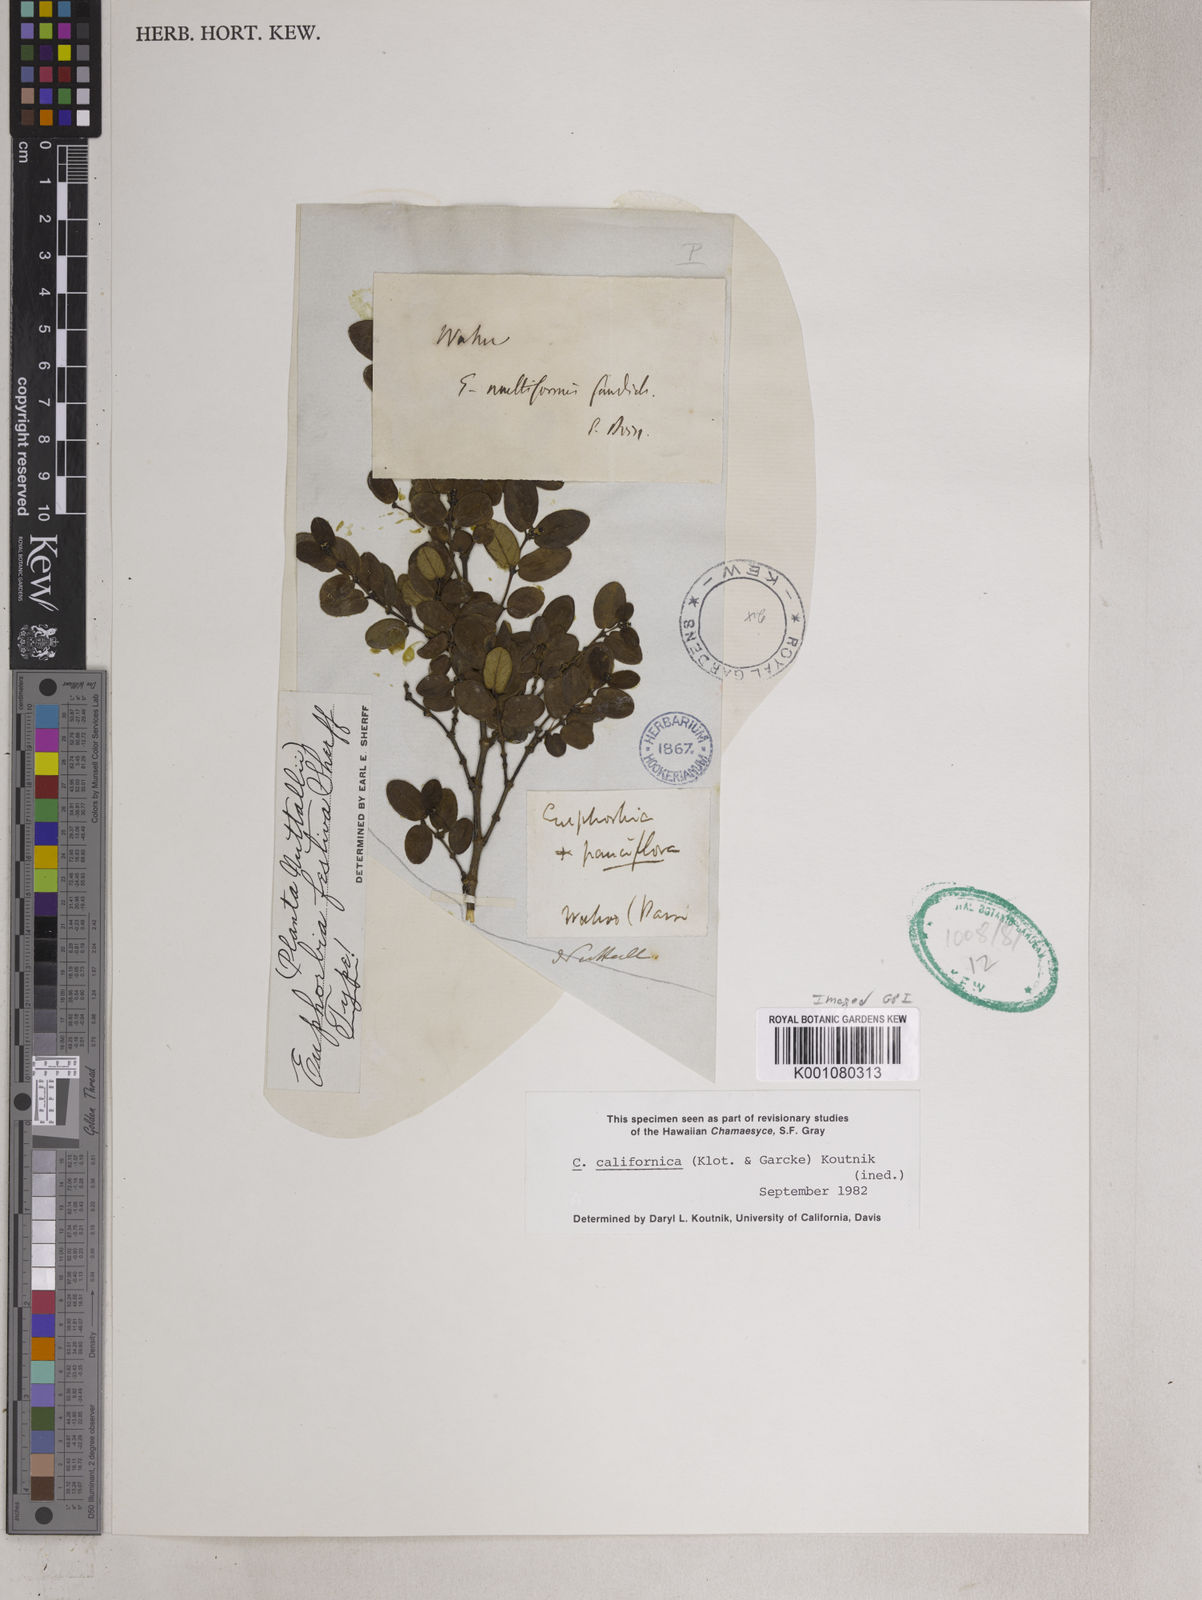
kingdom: Plantae
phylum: Tracheophyta
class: Magnoliopsida
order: Malpighiales
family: Euphorbiaceae
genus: Euphorbia
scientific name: Euphorbia deppeana
